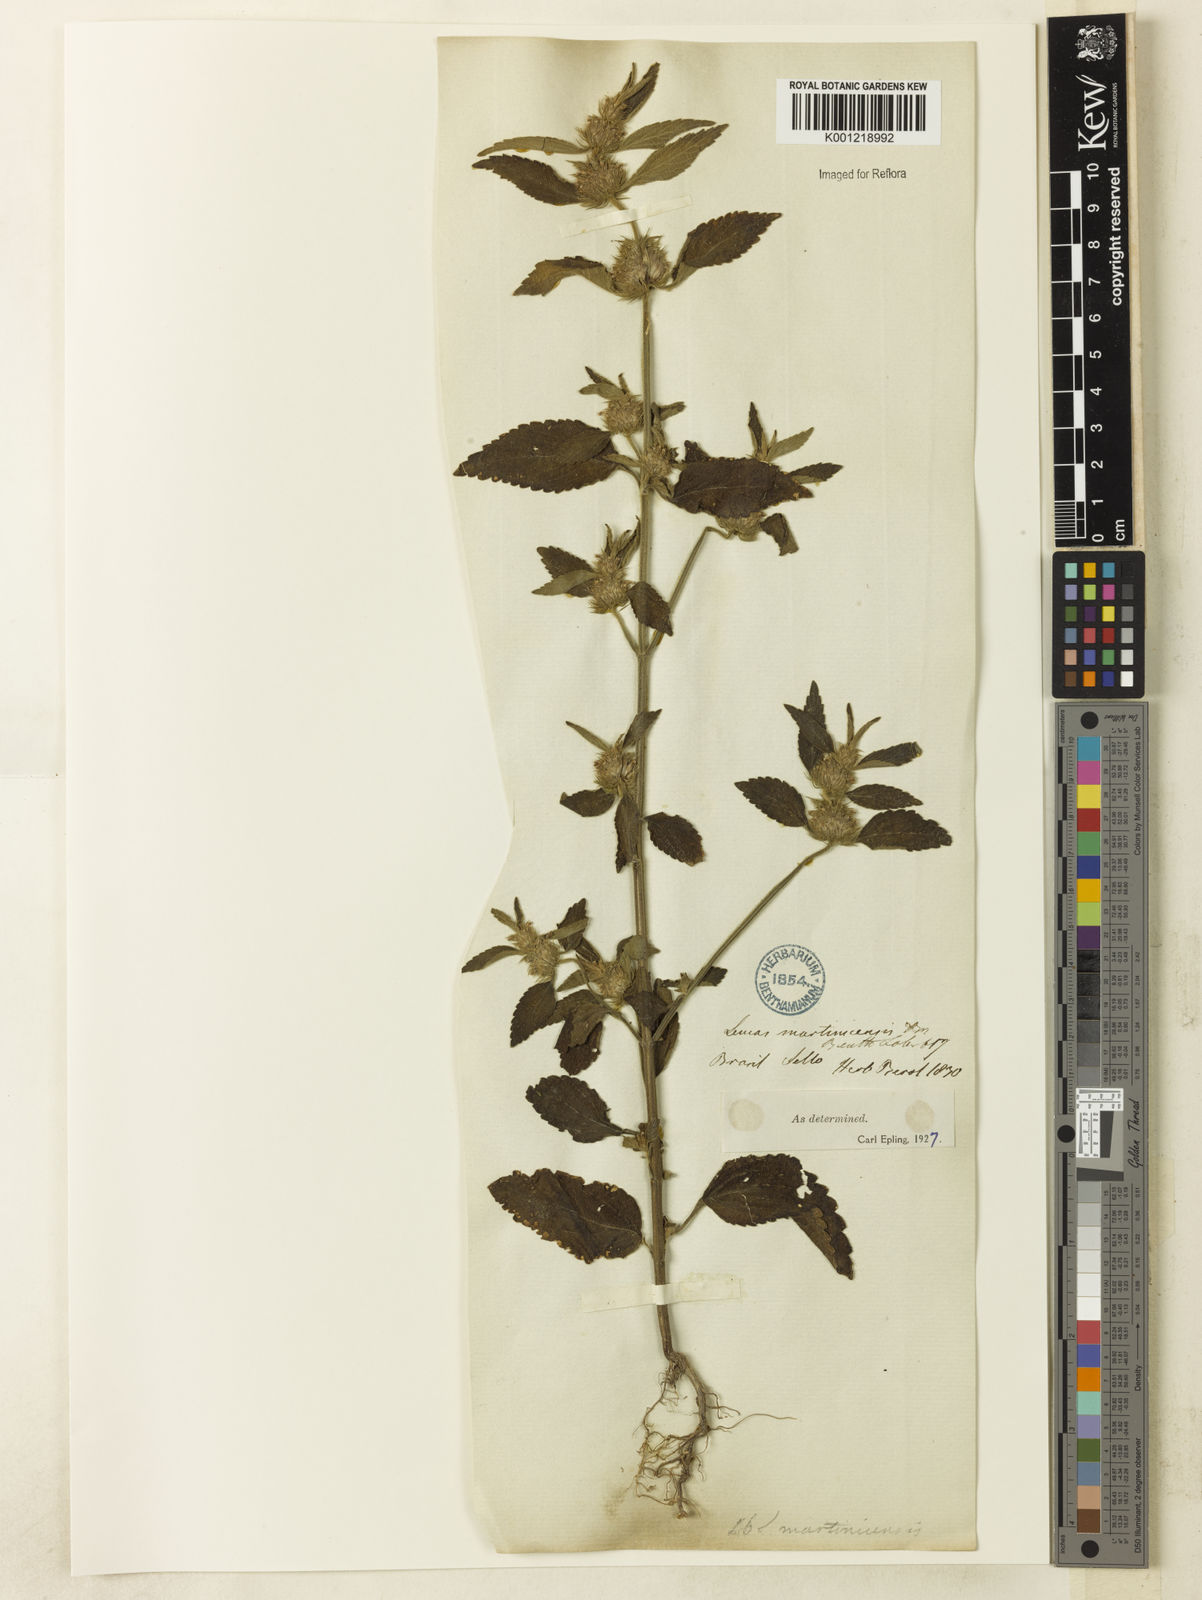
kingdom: Plantae
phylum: Tracheophyta
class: Magnoliopsida
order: Lamiales
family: Lamiaceae
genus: Leucas
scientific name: Leucas martinicensis
